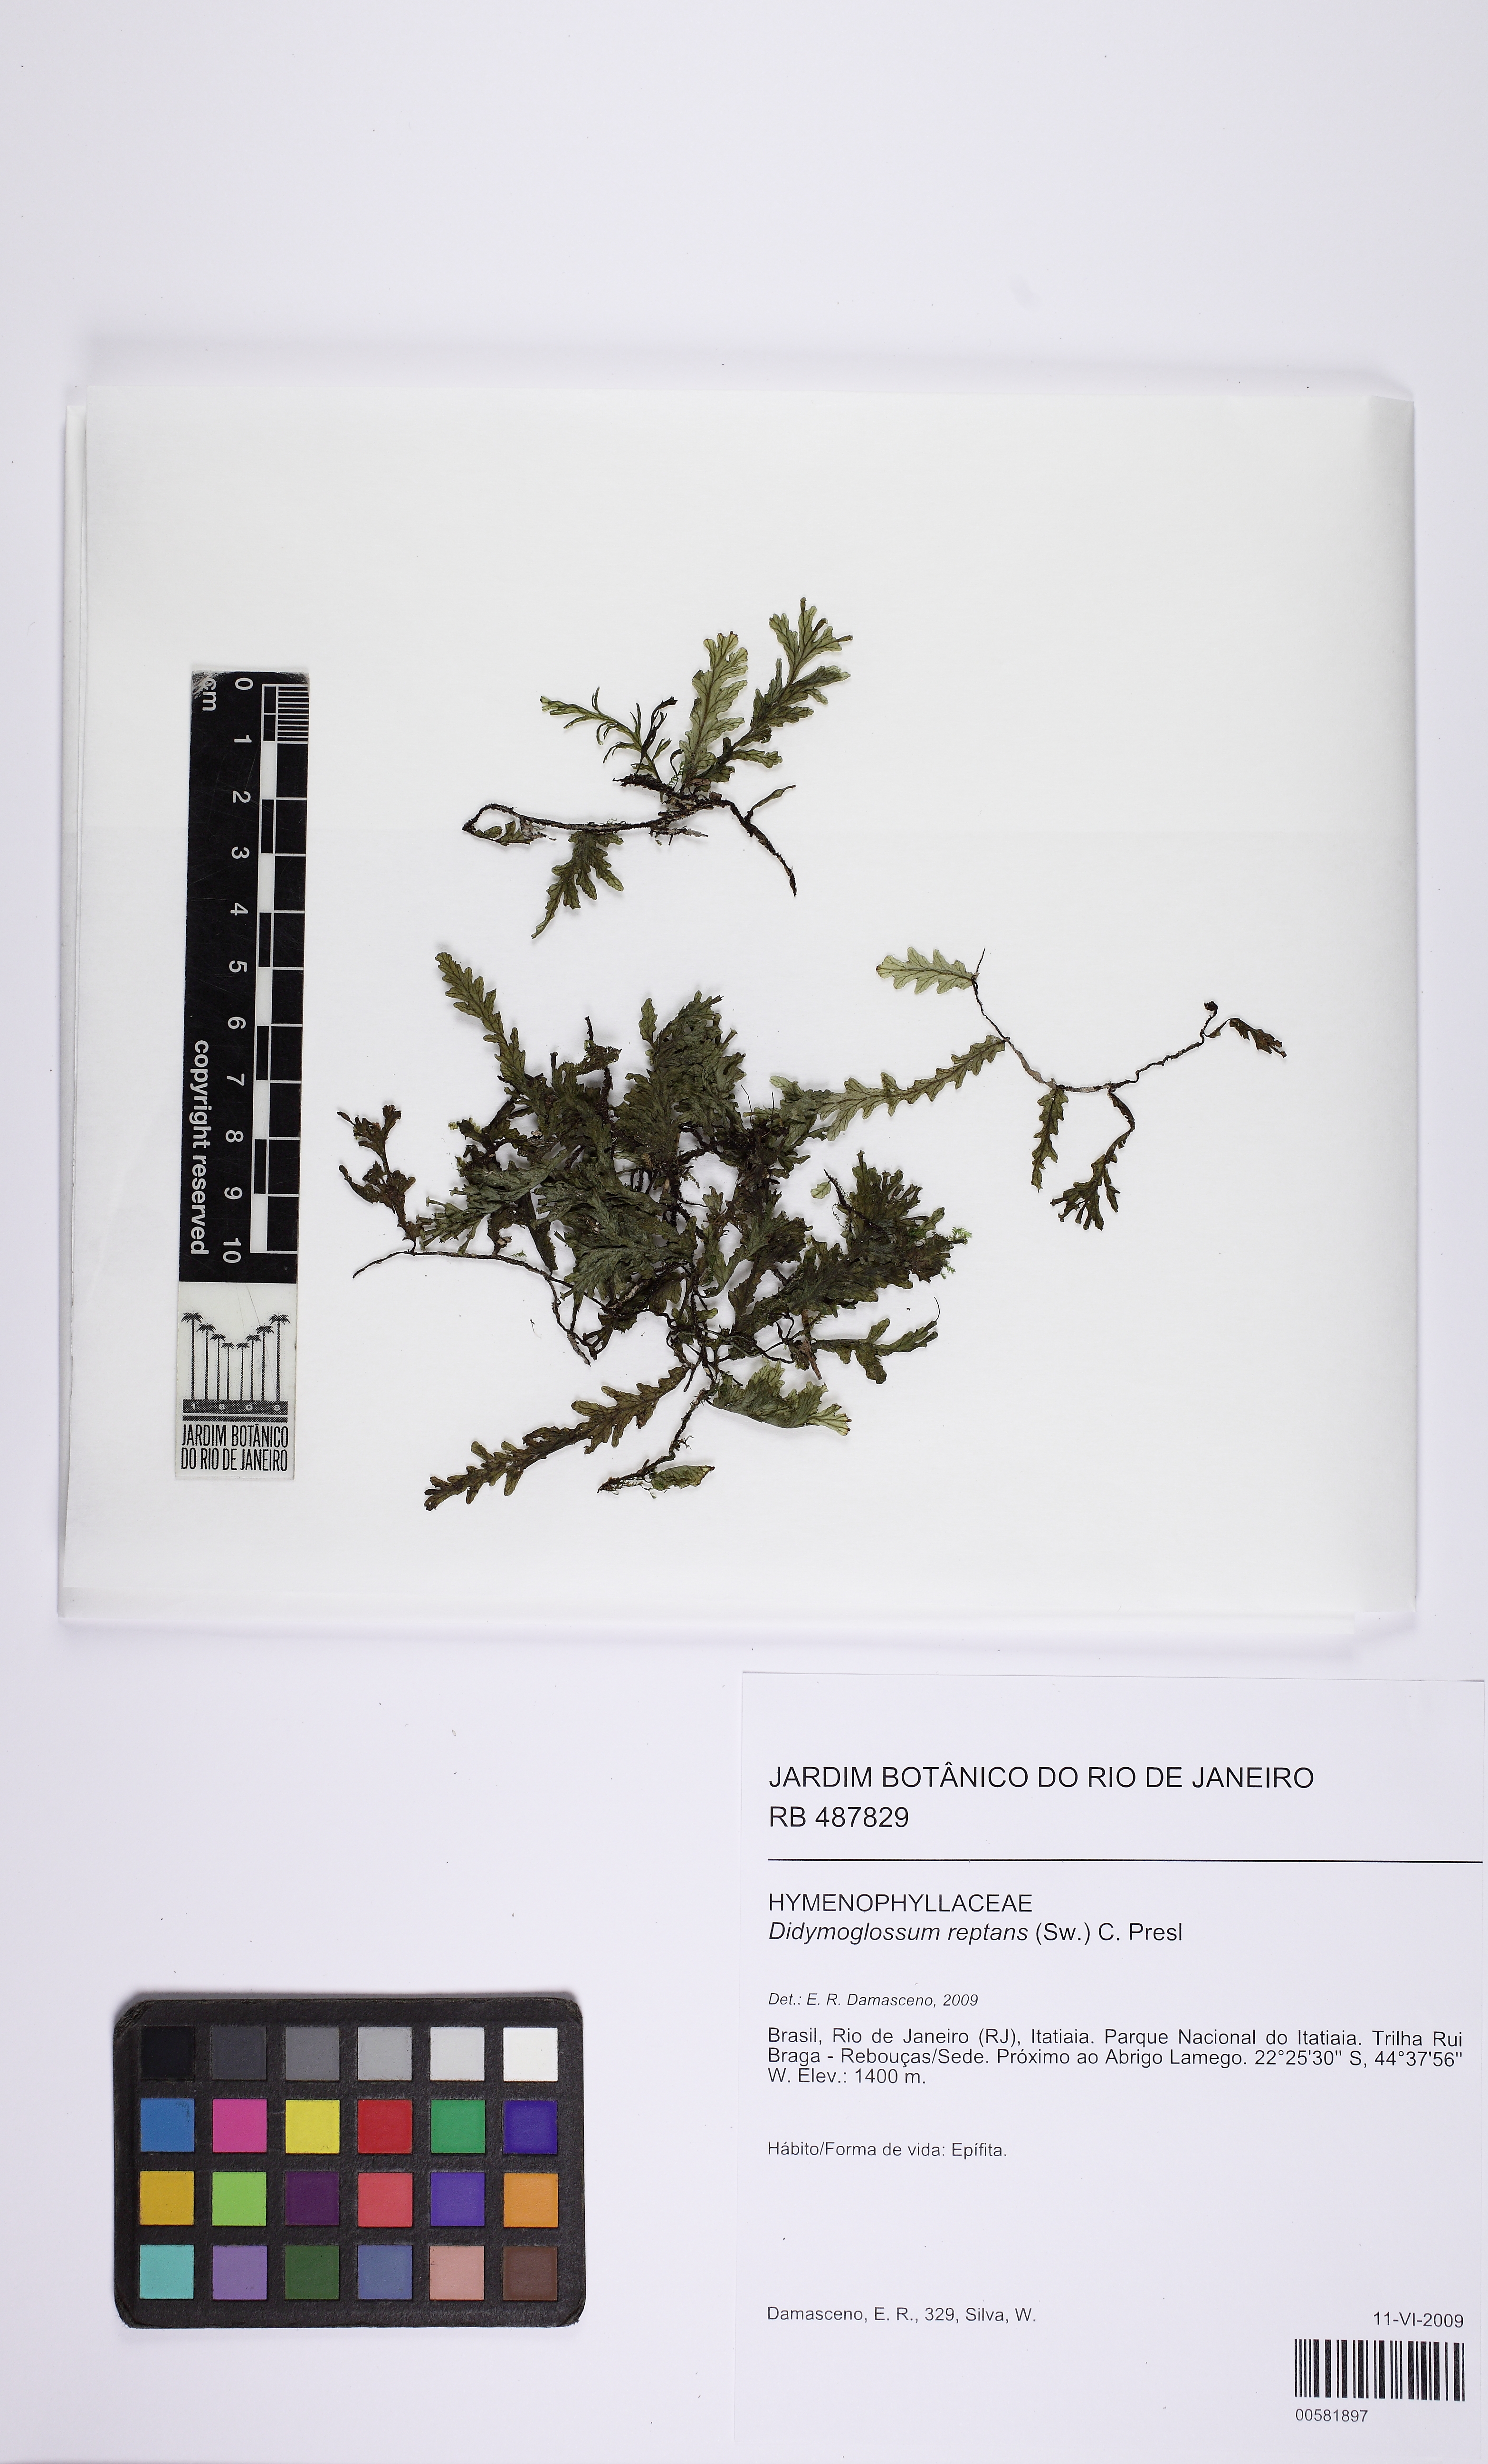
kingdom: Plantae
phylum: Tracheophyta
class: Polypodiopsida
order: Hymenophyllales
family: Hymenophyllaceae
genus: Didymoglossum
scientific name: Didymoglossum reptans
